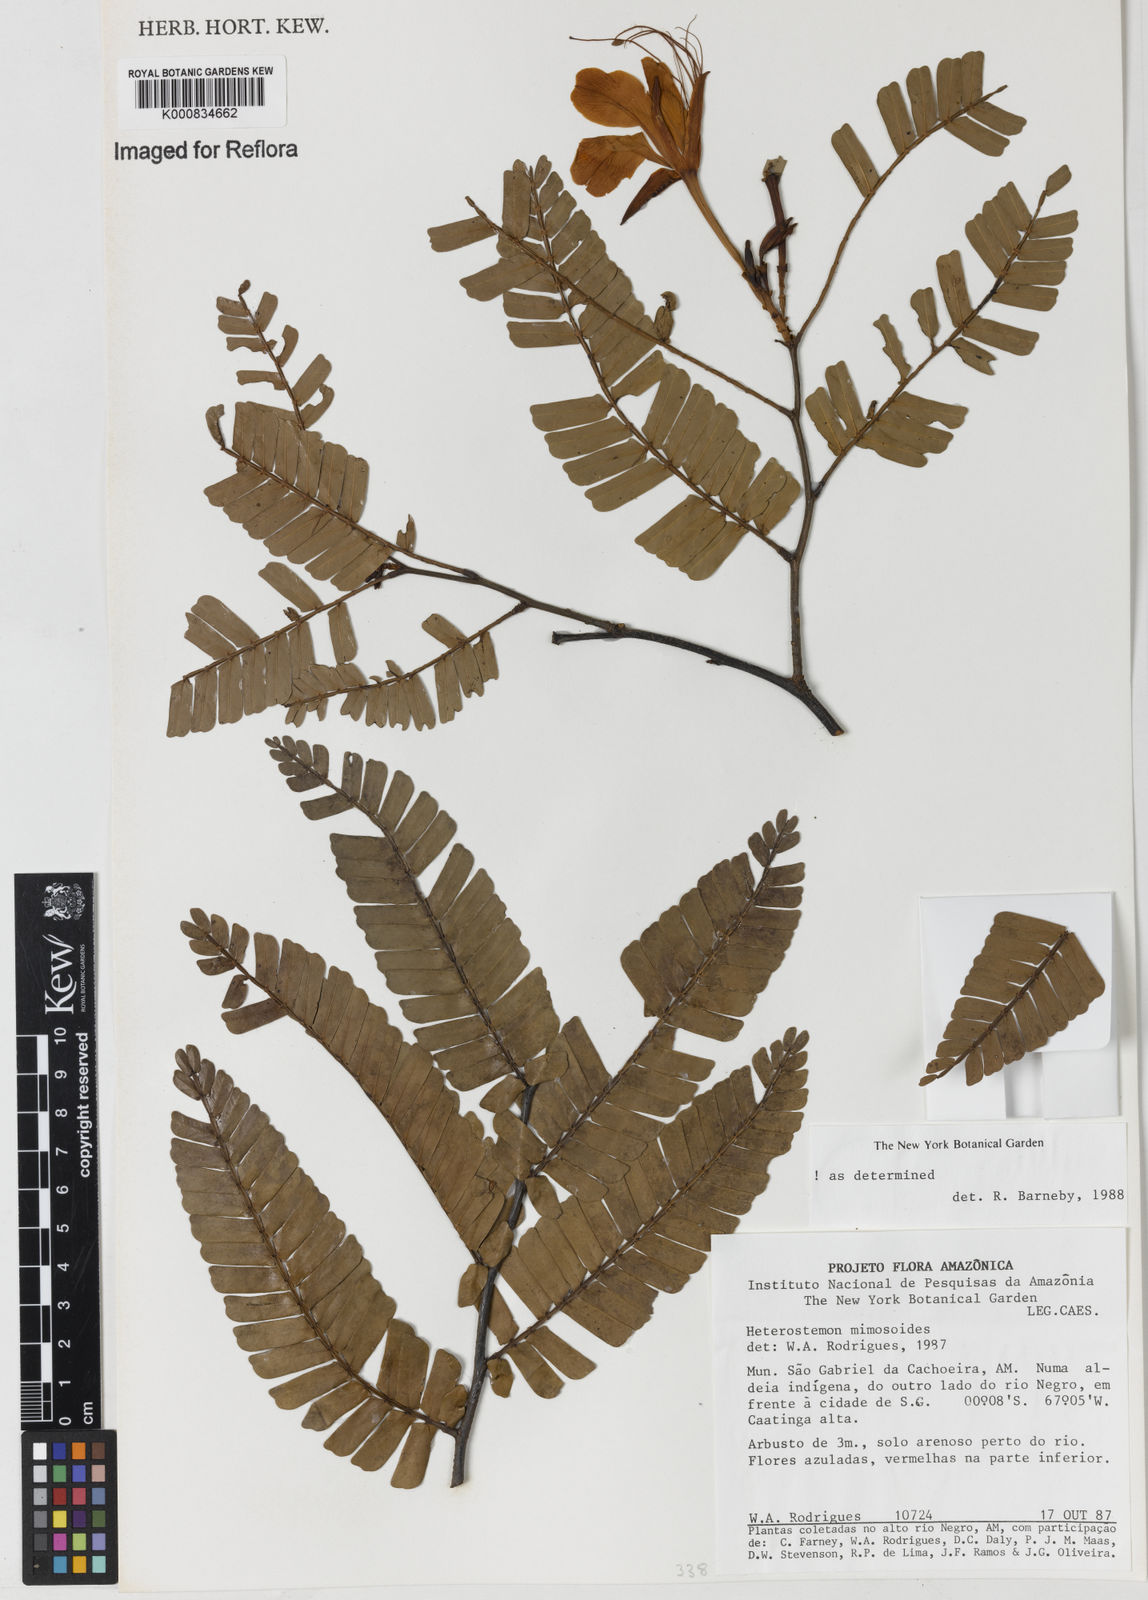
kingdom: Plantae
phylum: Tracheophyta
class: Magnoliopsida
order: Fabales
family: Fabaceae
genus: Heterostemon
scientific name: Heterostemon mimosoides
